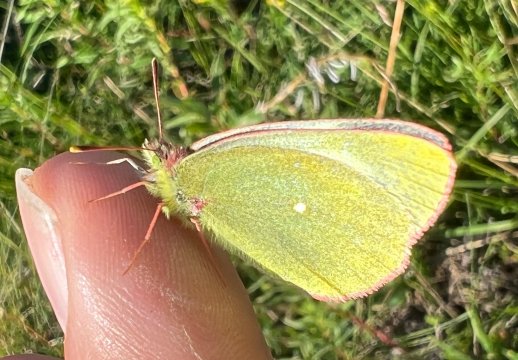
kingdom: Animalia
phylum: Arthropoda
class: Insecta
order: Lepidoptera
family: Pieridae
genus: Colias
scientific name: Colias palaeno
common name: Chippewa Sulphur
